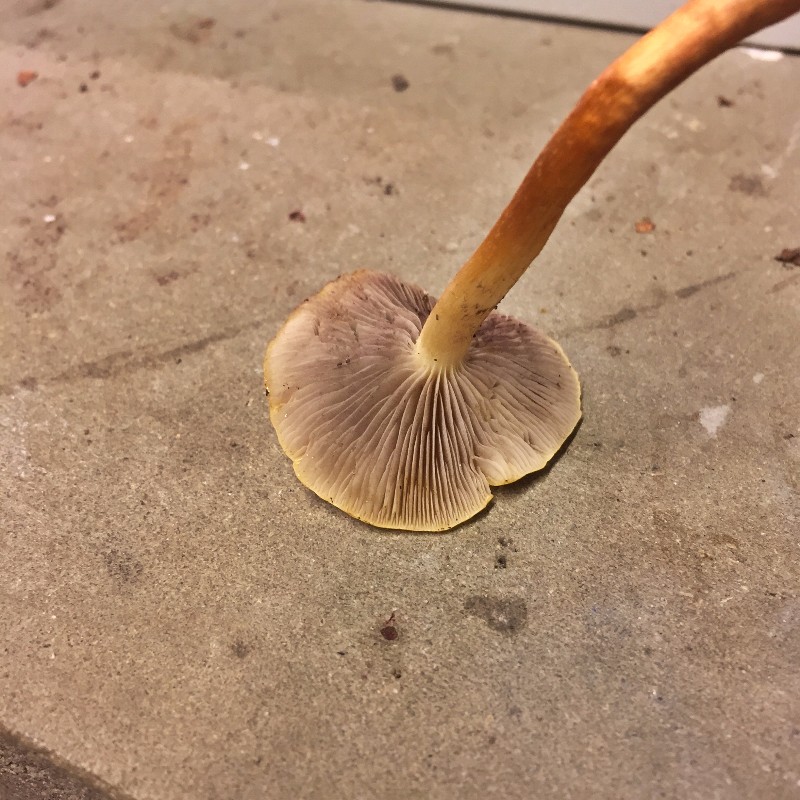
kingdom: Fungi
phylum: Basidiomycota
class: Agaricomycetes
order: Agaricales
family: Strophariaceae
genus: Hypholoma
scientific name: Hypholoma capnoides
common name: gran-svovlhat
